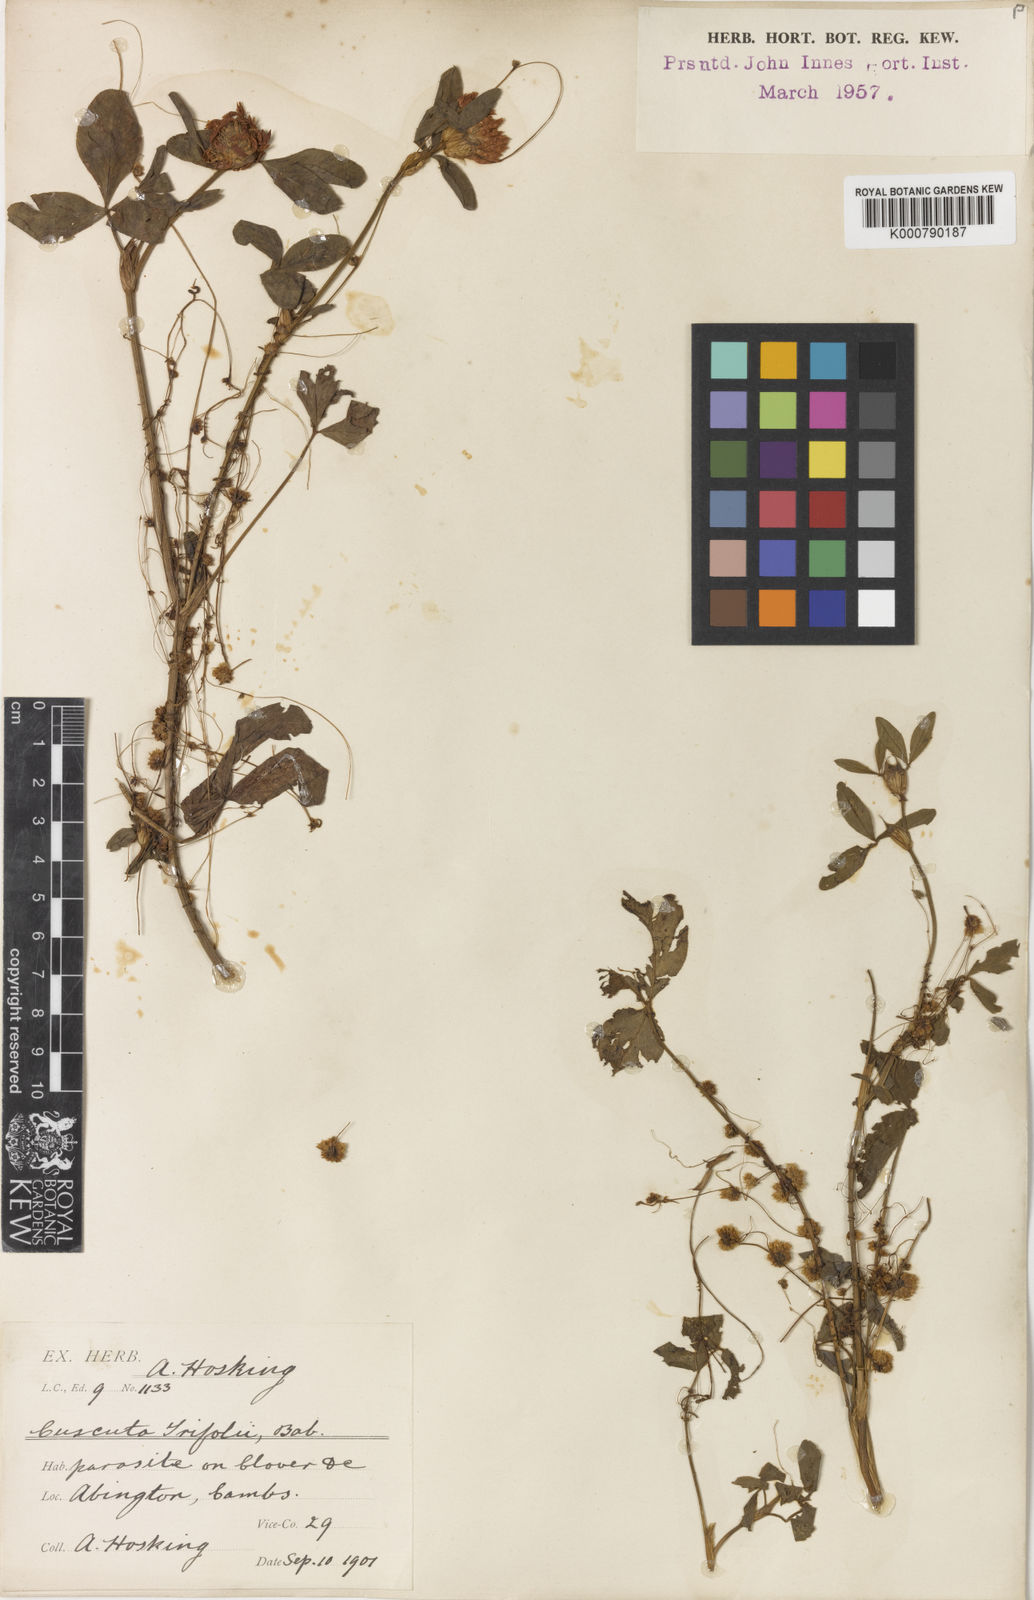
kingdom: Plantae
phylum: Tracheophyta
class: Magnoliopsida
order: Solanales
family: Convolvulaceae
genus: Cuscuta
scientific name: Cuscuta epithymum
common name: Clover dodder
